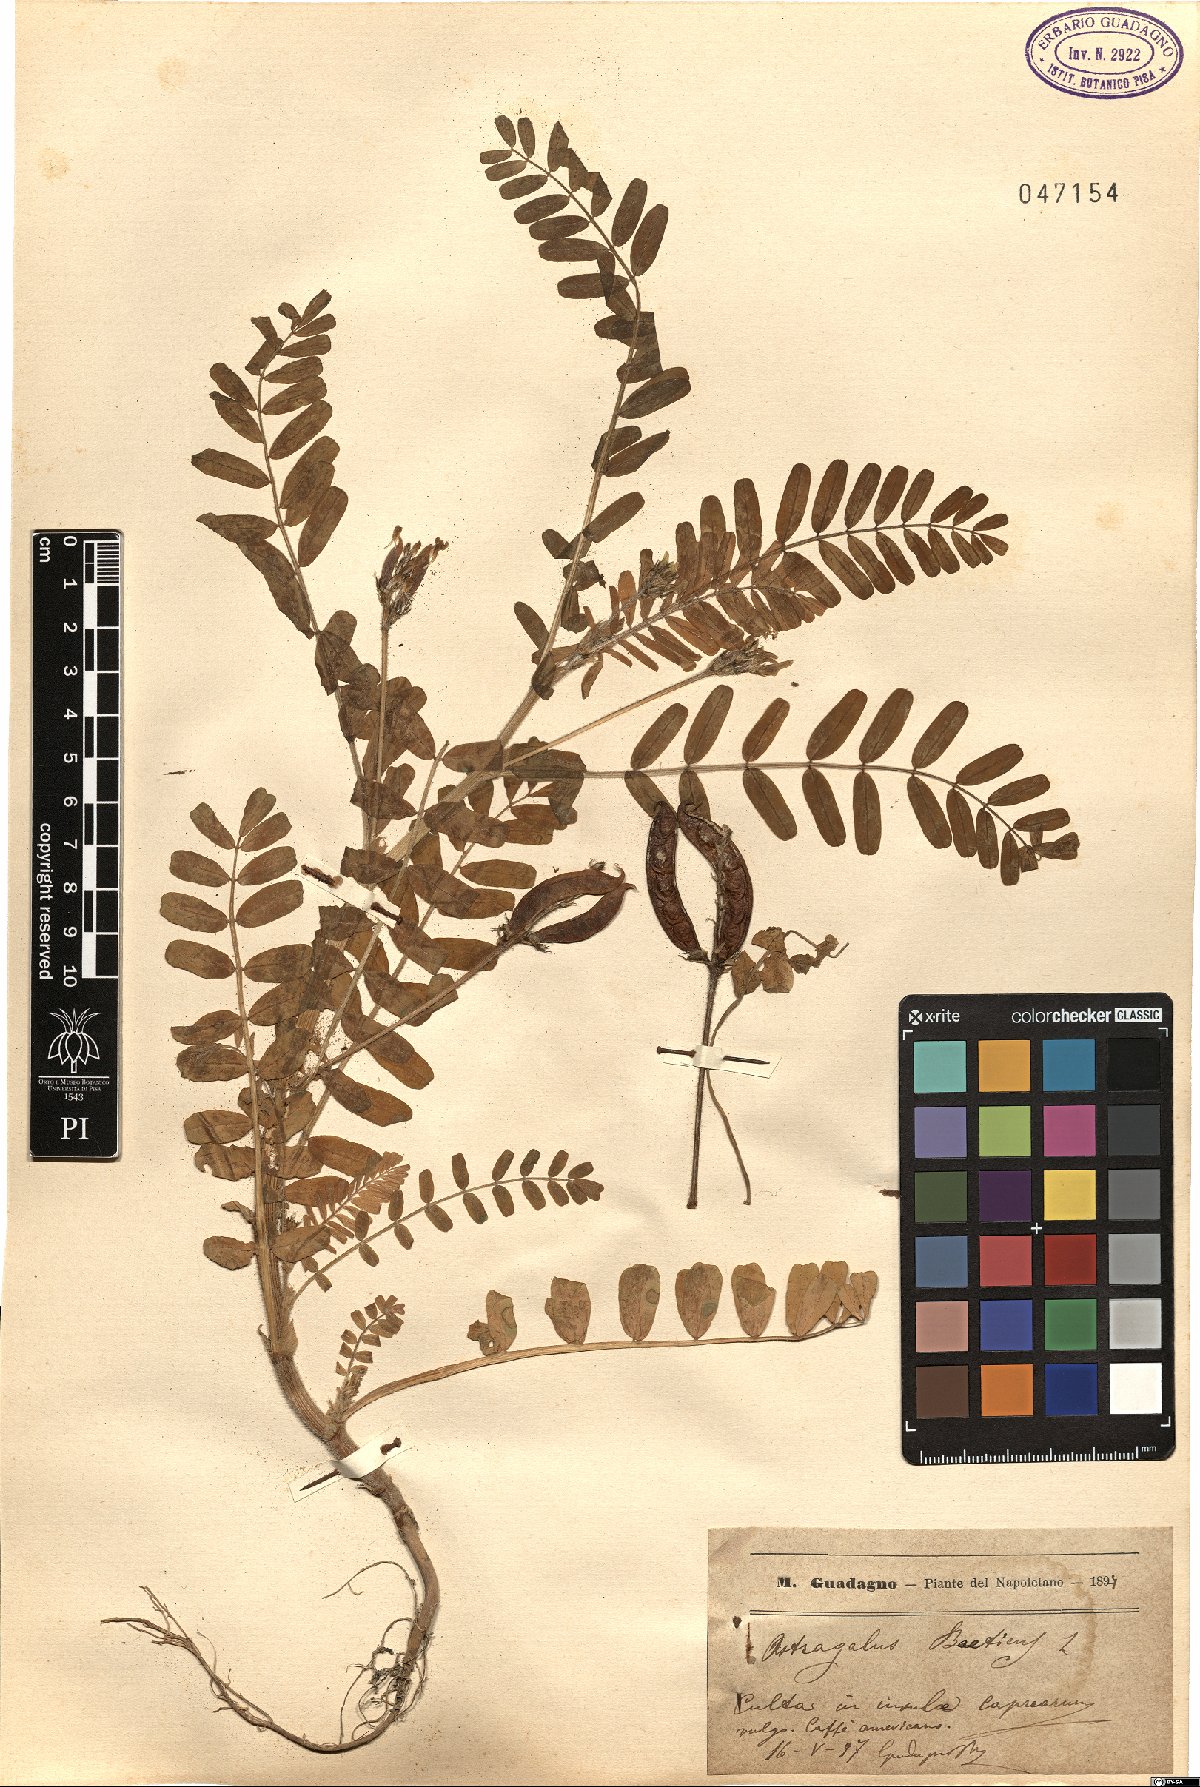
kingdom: Plantae
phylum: Tracheophyta
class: Magnoliopsida
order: Fabales
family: Fabaceae
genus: Astragalus
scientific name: Astragalus boeticus
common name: Milk-vetch
